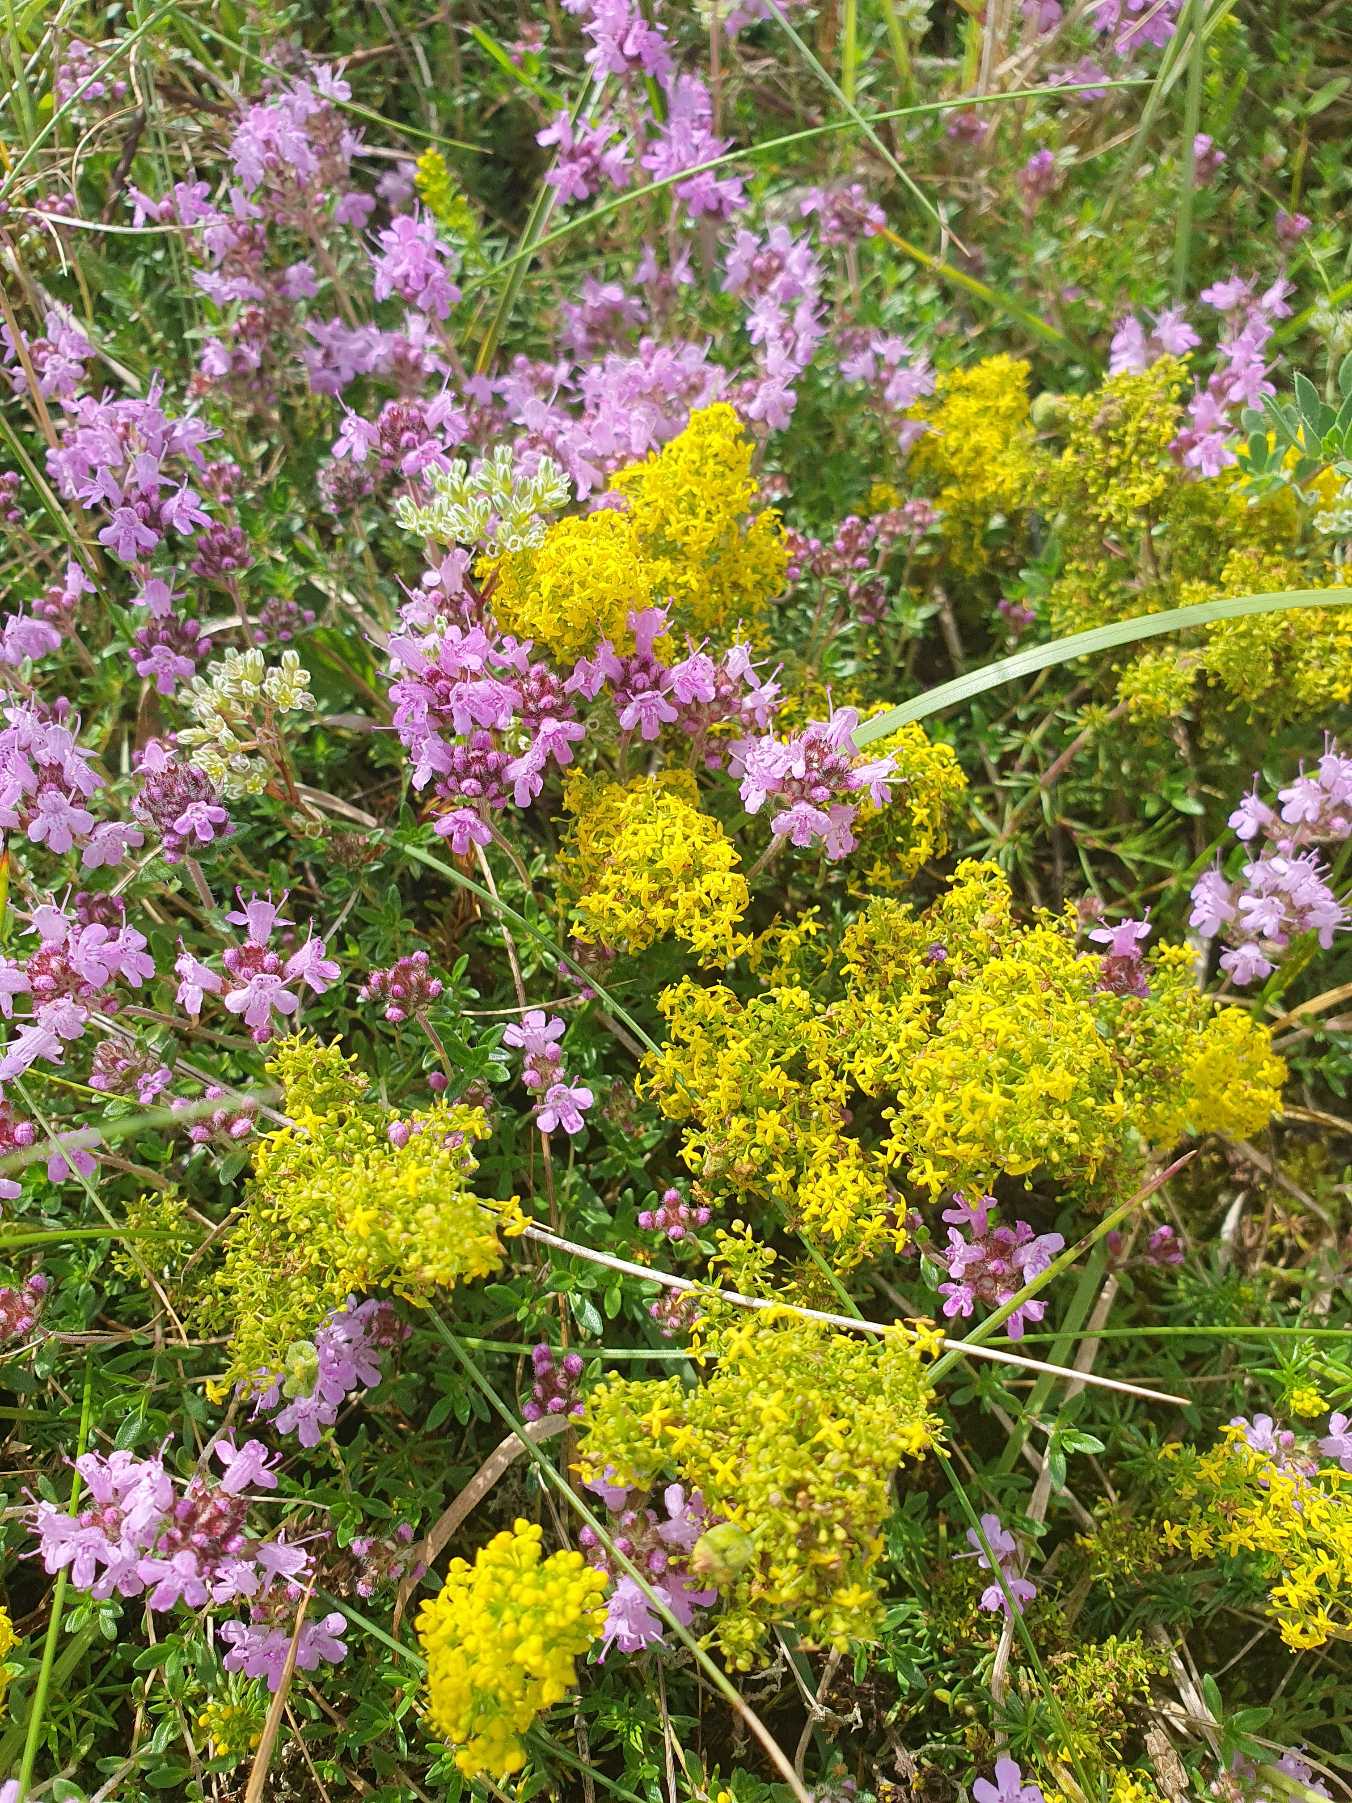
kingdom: Plantae
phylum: Tracheophyta
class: Magnoliopsida
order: Lamiales
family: Lamiaceae
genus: Thymus
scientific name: Thymus serpyllum
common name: Smalbladet timian
